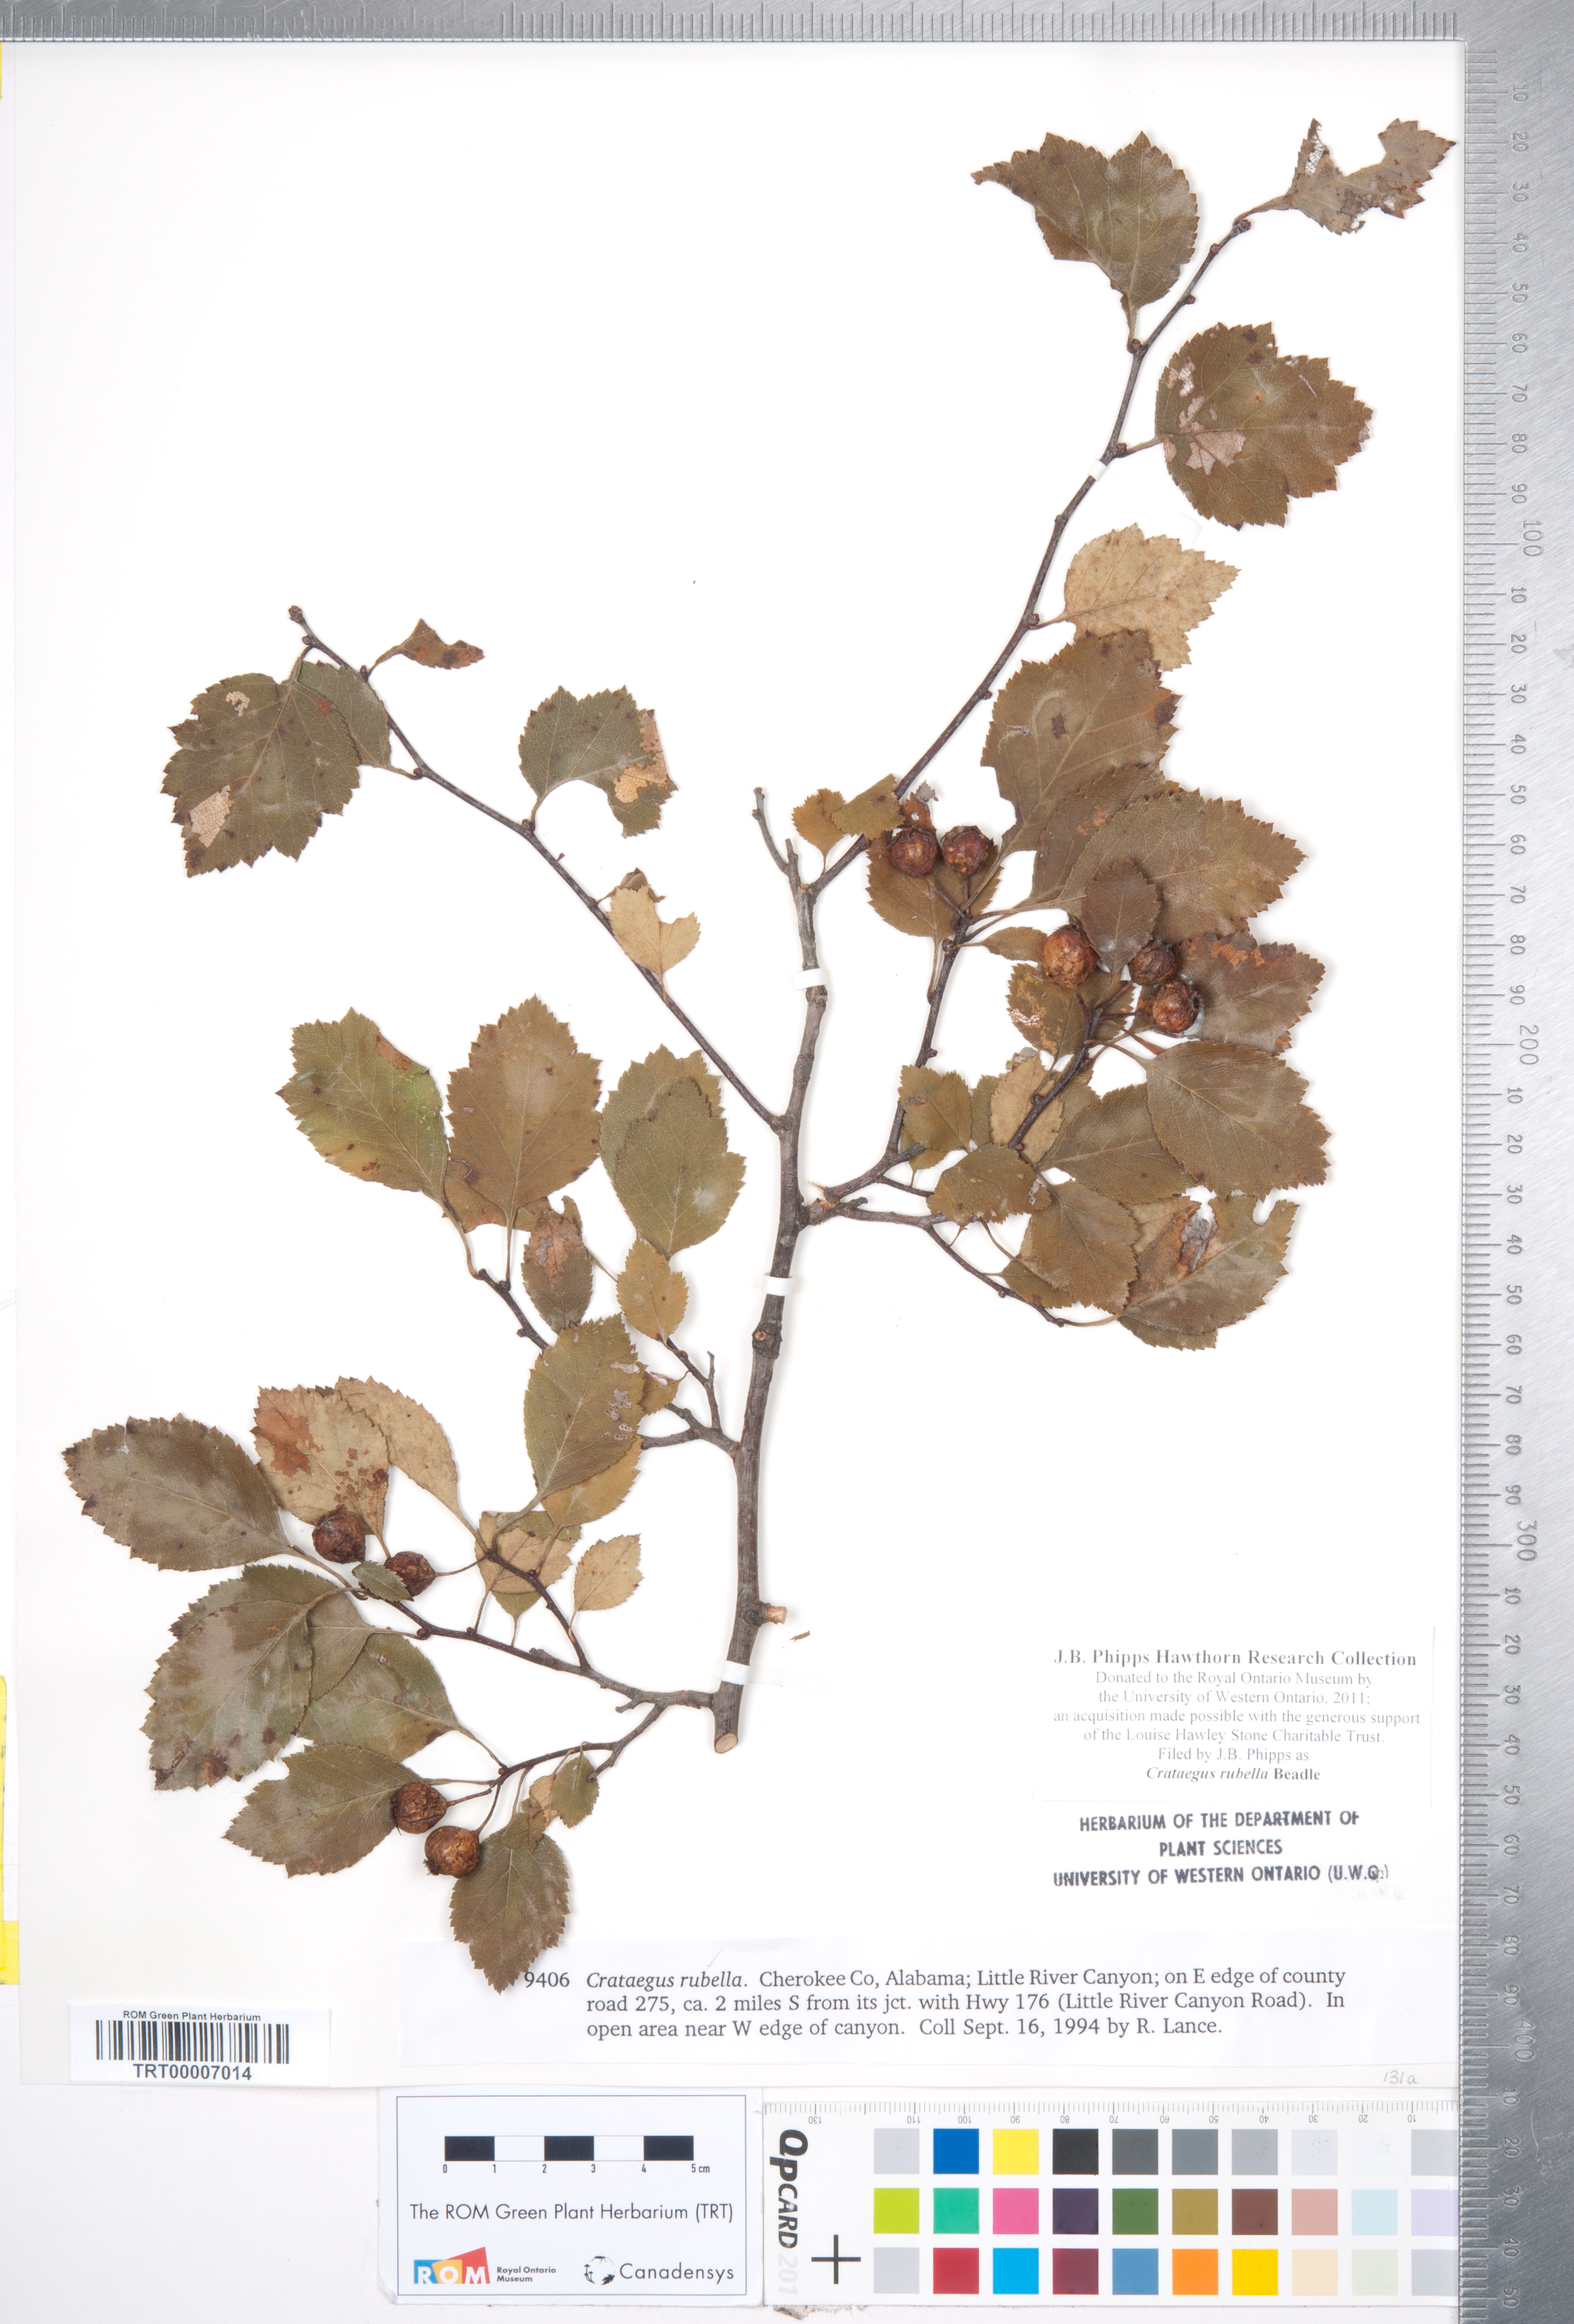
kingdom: Plantae
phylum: Tracheophyta
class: Magnoliopsida
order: Rosales
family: Rosaceae
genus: Crataegus
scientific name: Crataegus intricata
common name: Biltmore hawthorn
